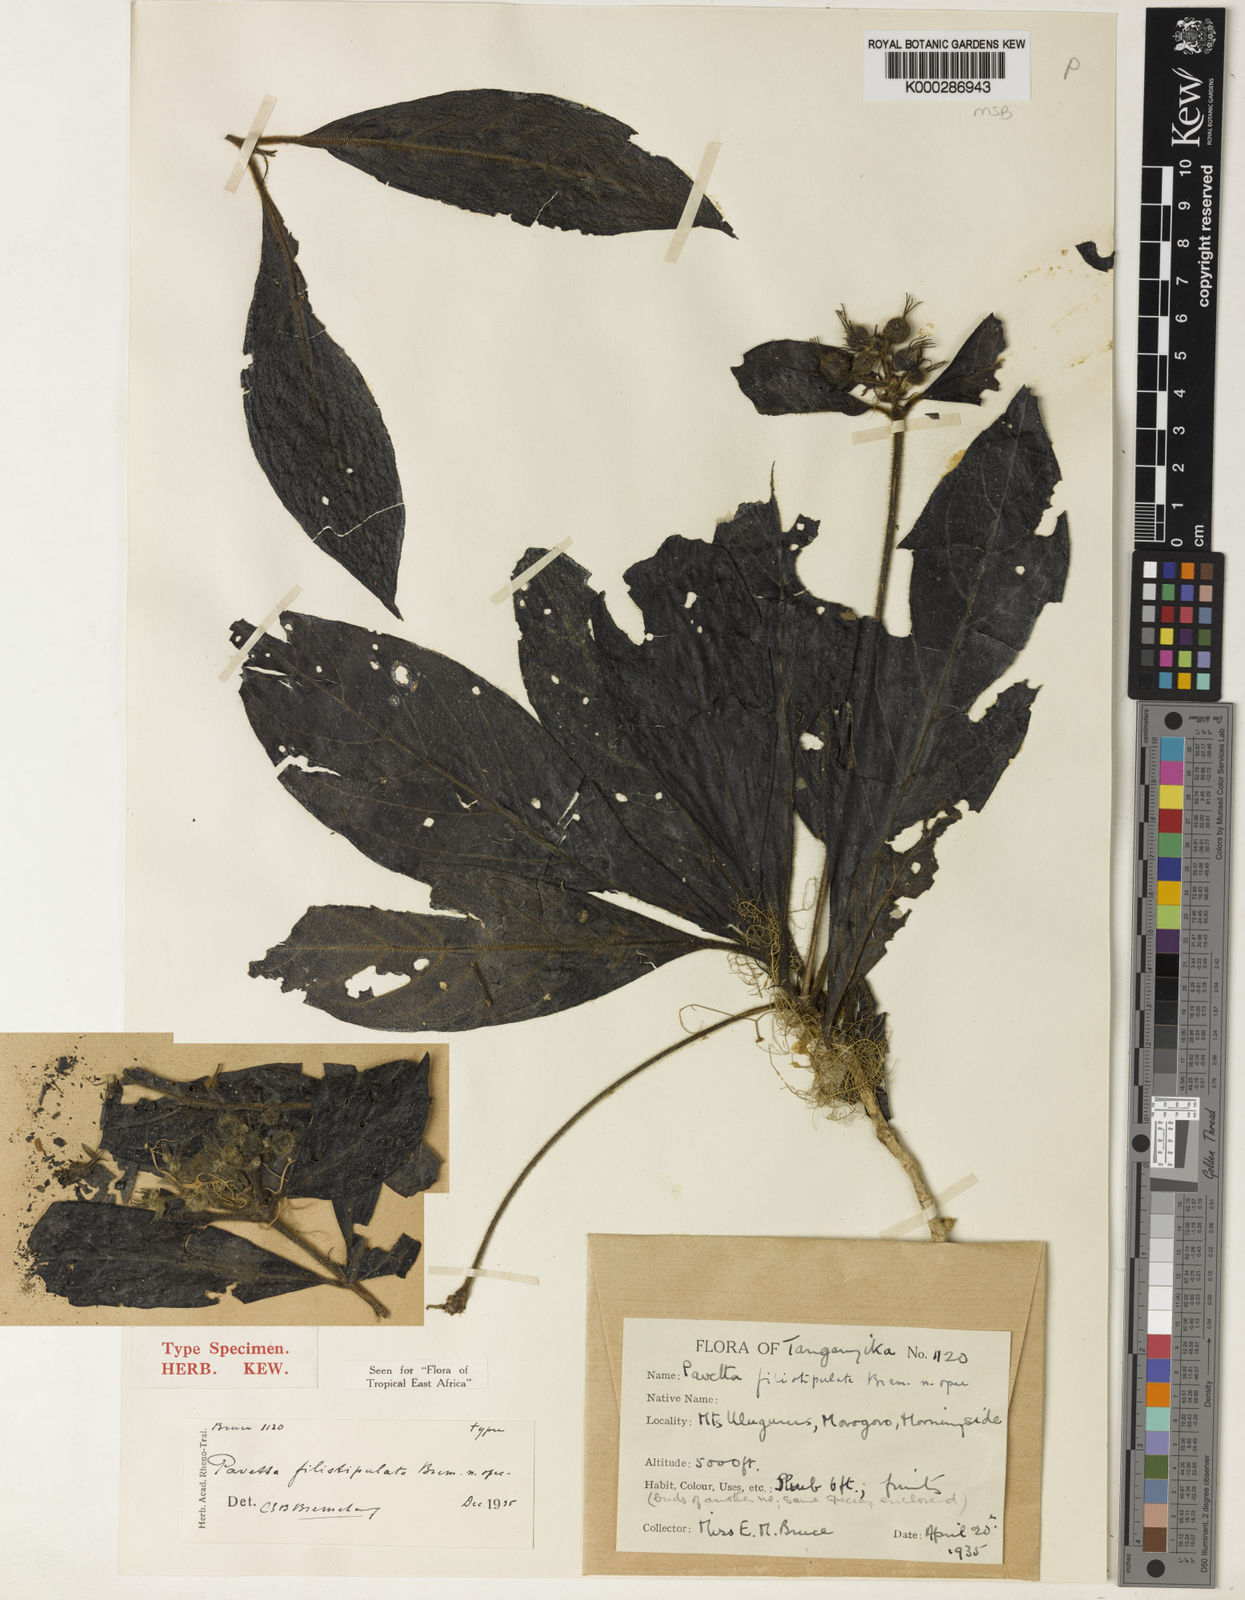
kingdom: Plantae
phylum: Tracheophyta
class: Magnoliopsida
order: Gentianales
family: Rubiaceae
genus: Pavetta
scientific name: Pavetta filistipulata
